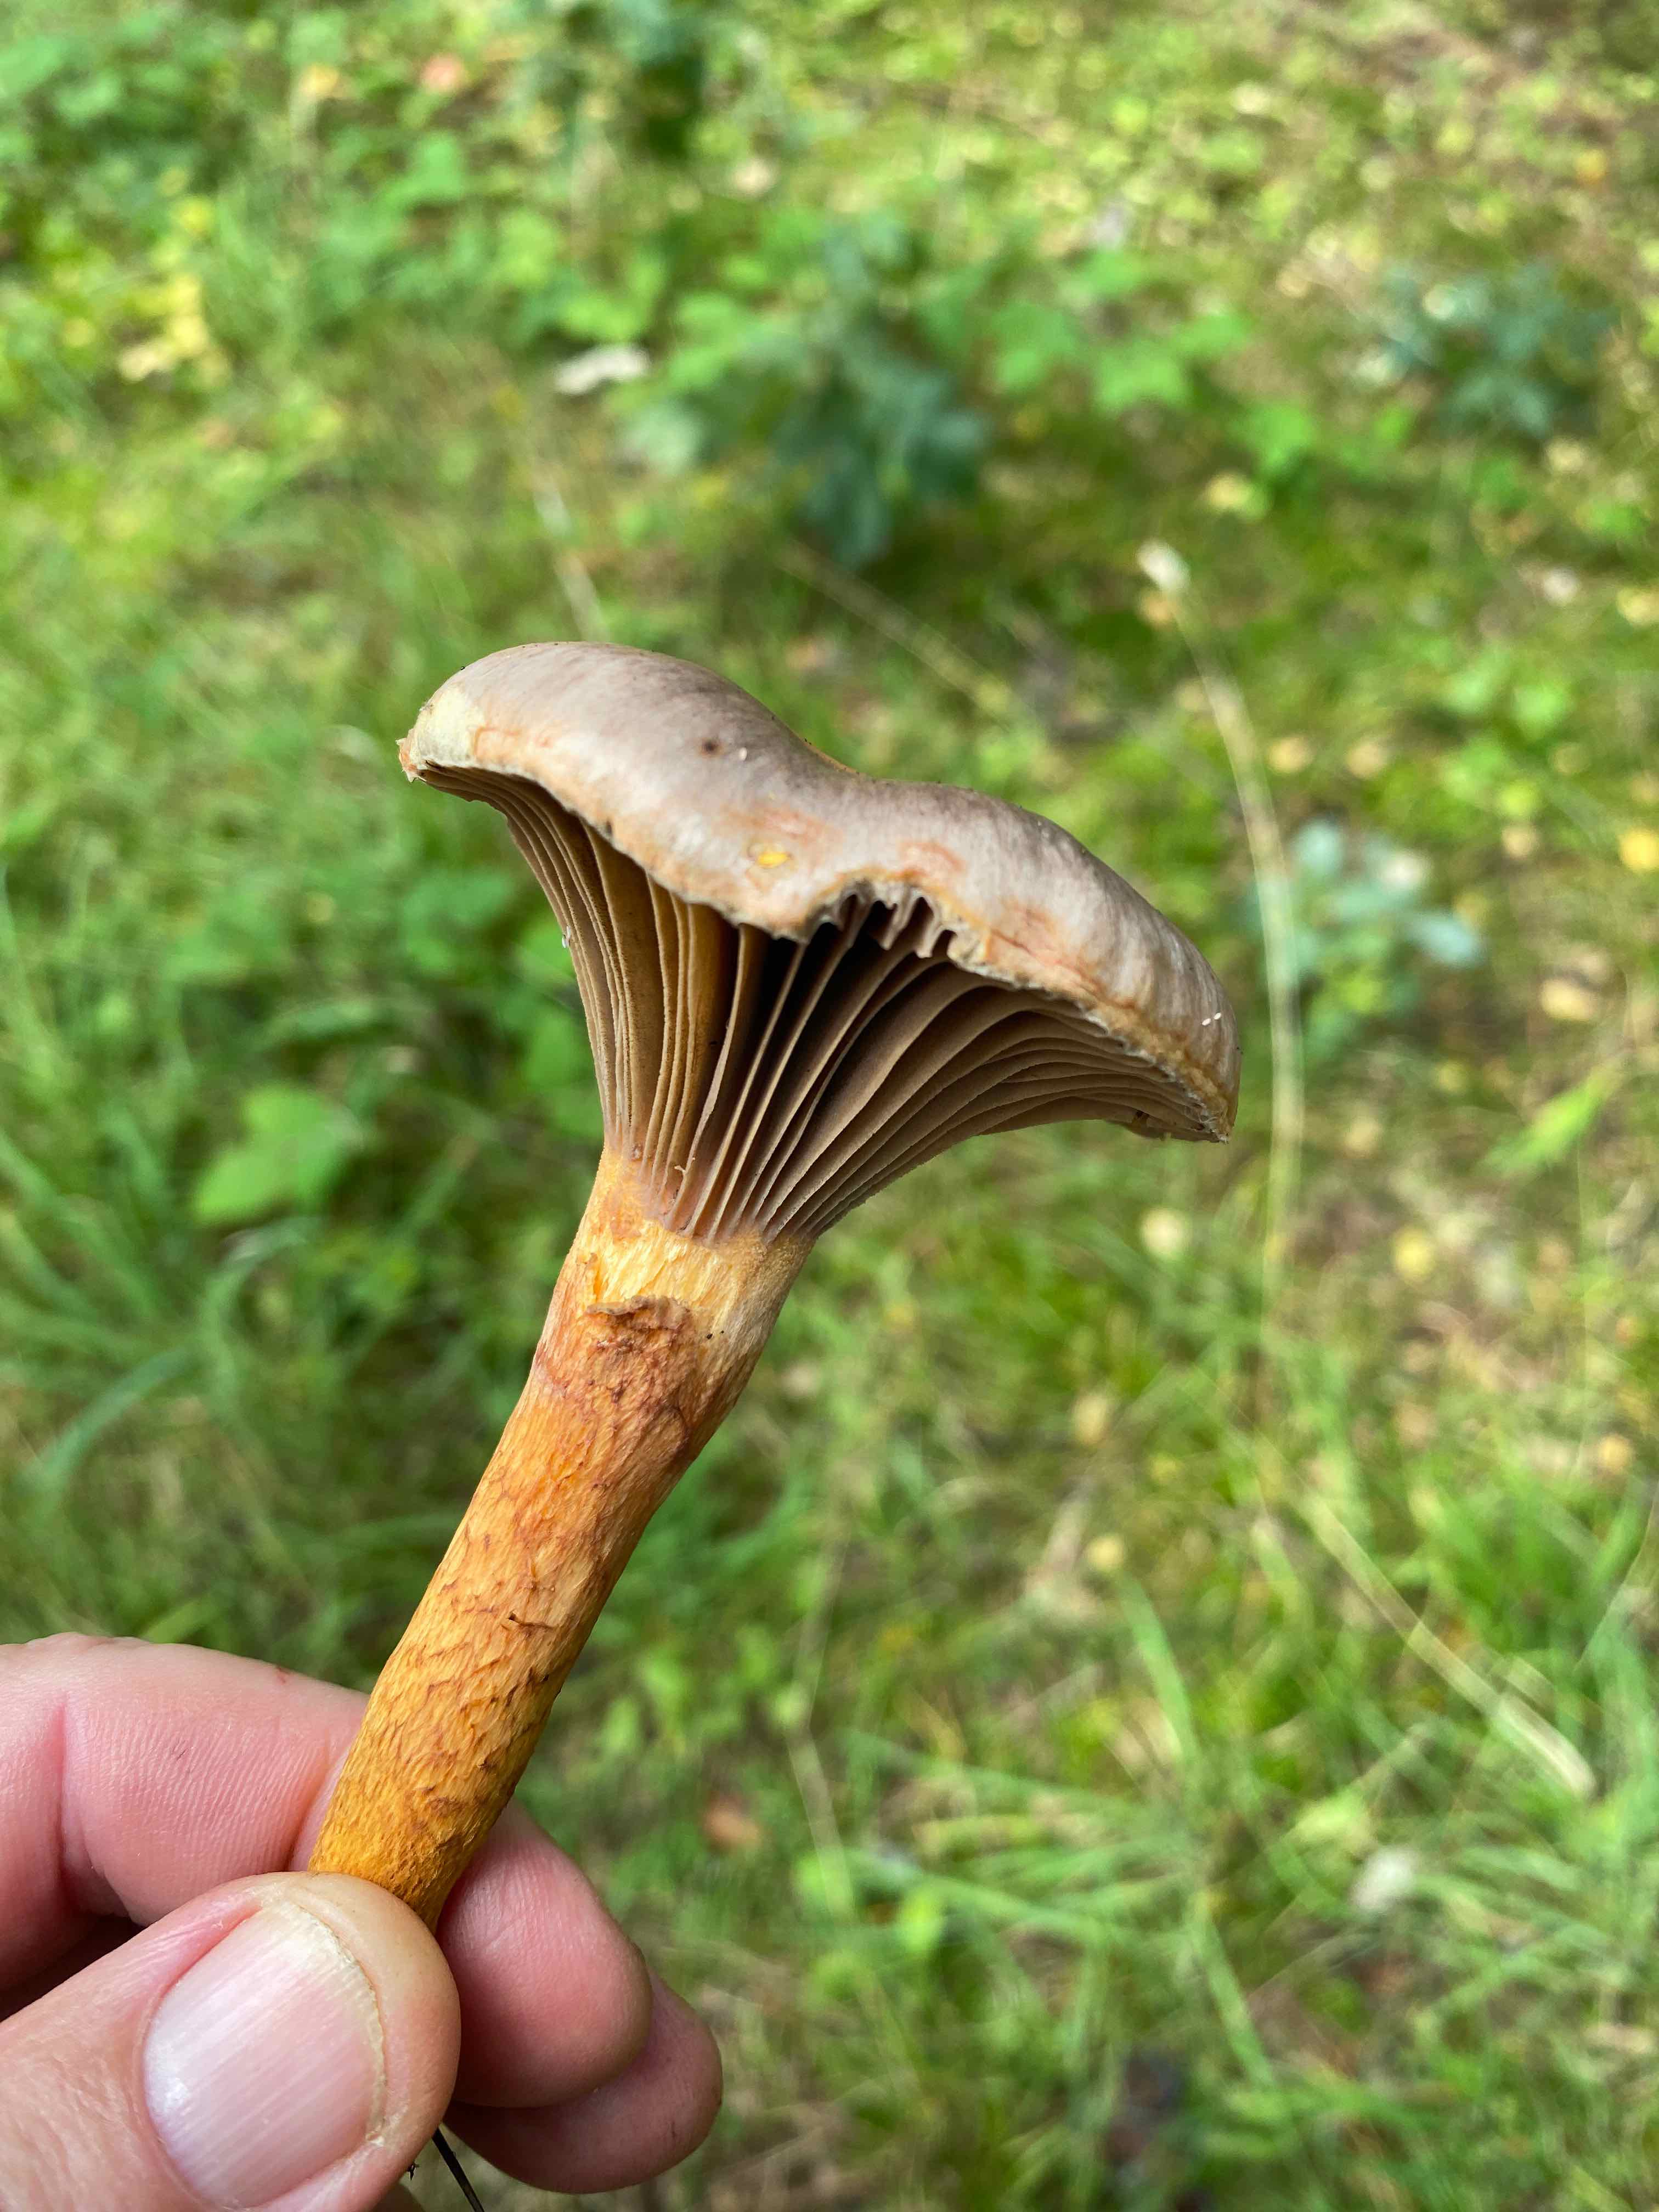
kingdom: Fungi
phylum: Basidiomycota
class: Agaricomycetes
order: Boletales
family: Gomphidiaceae
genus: Chroogomphus
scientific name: Chroogomphus rutilus
